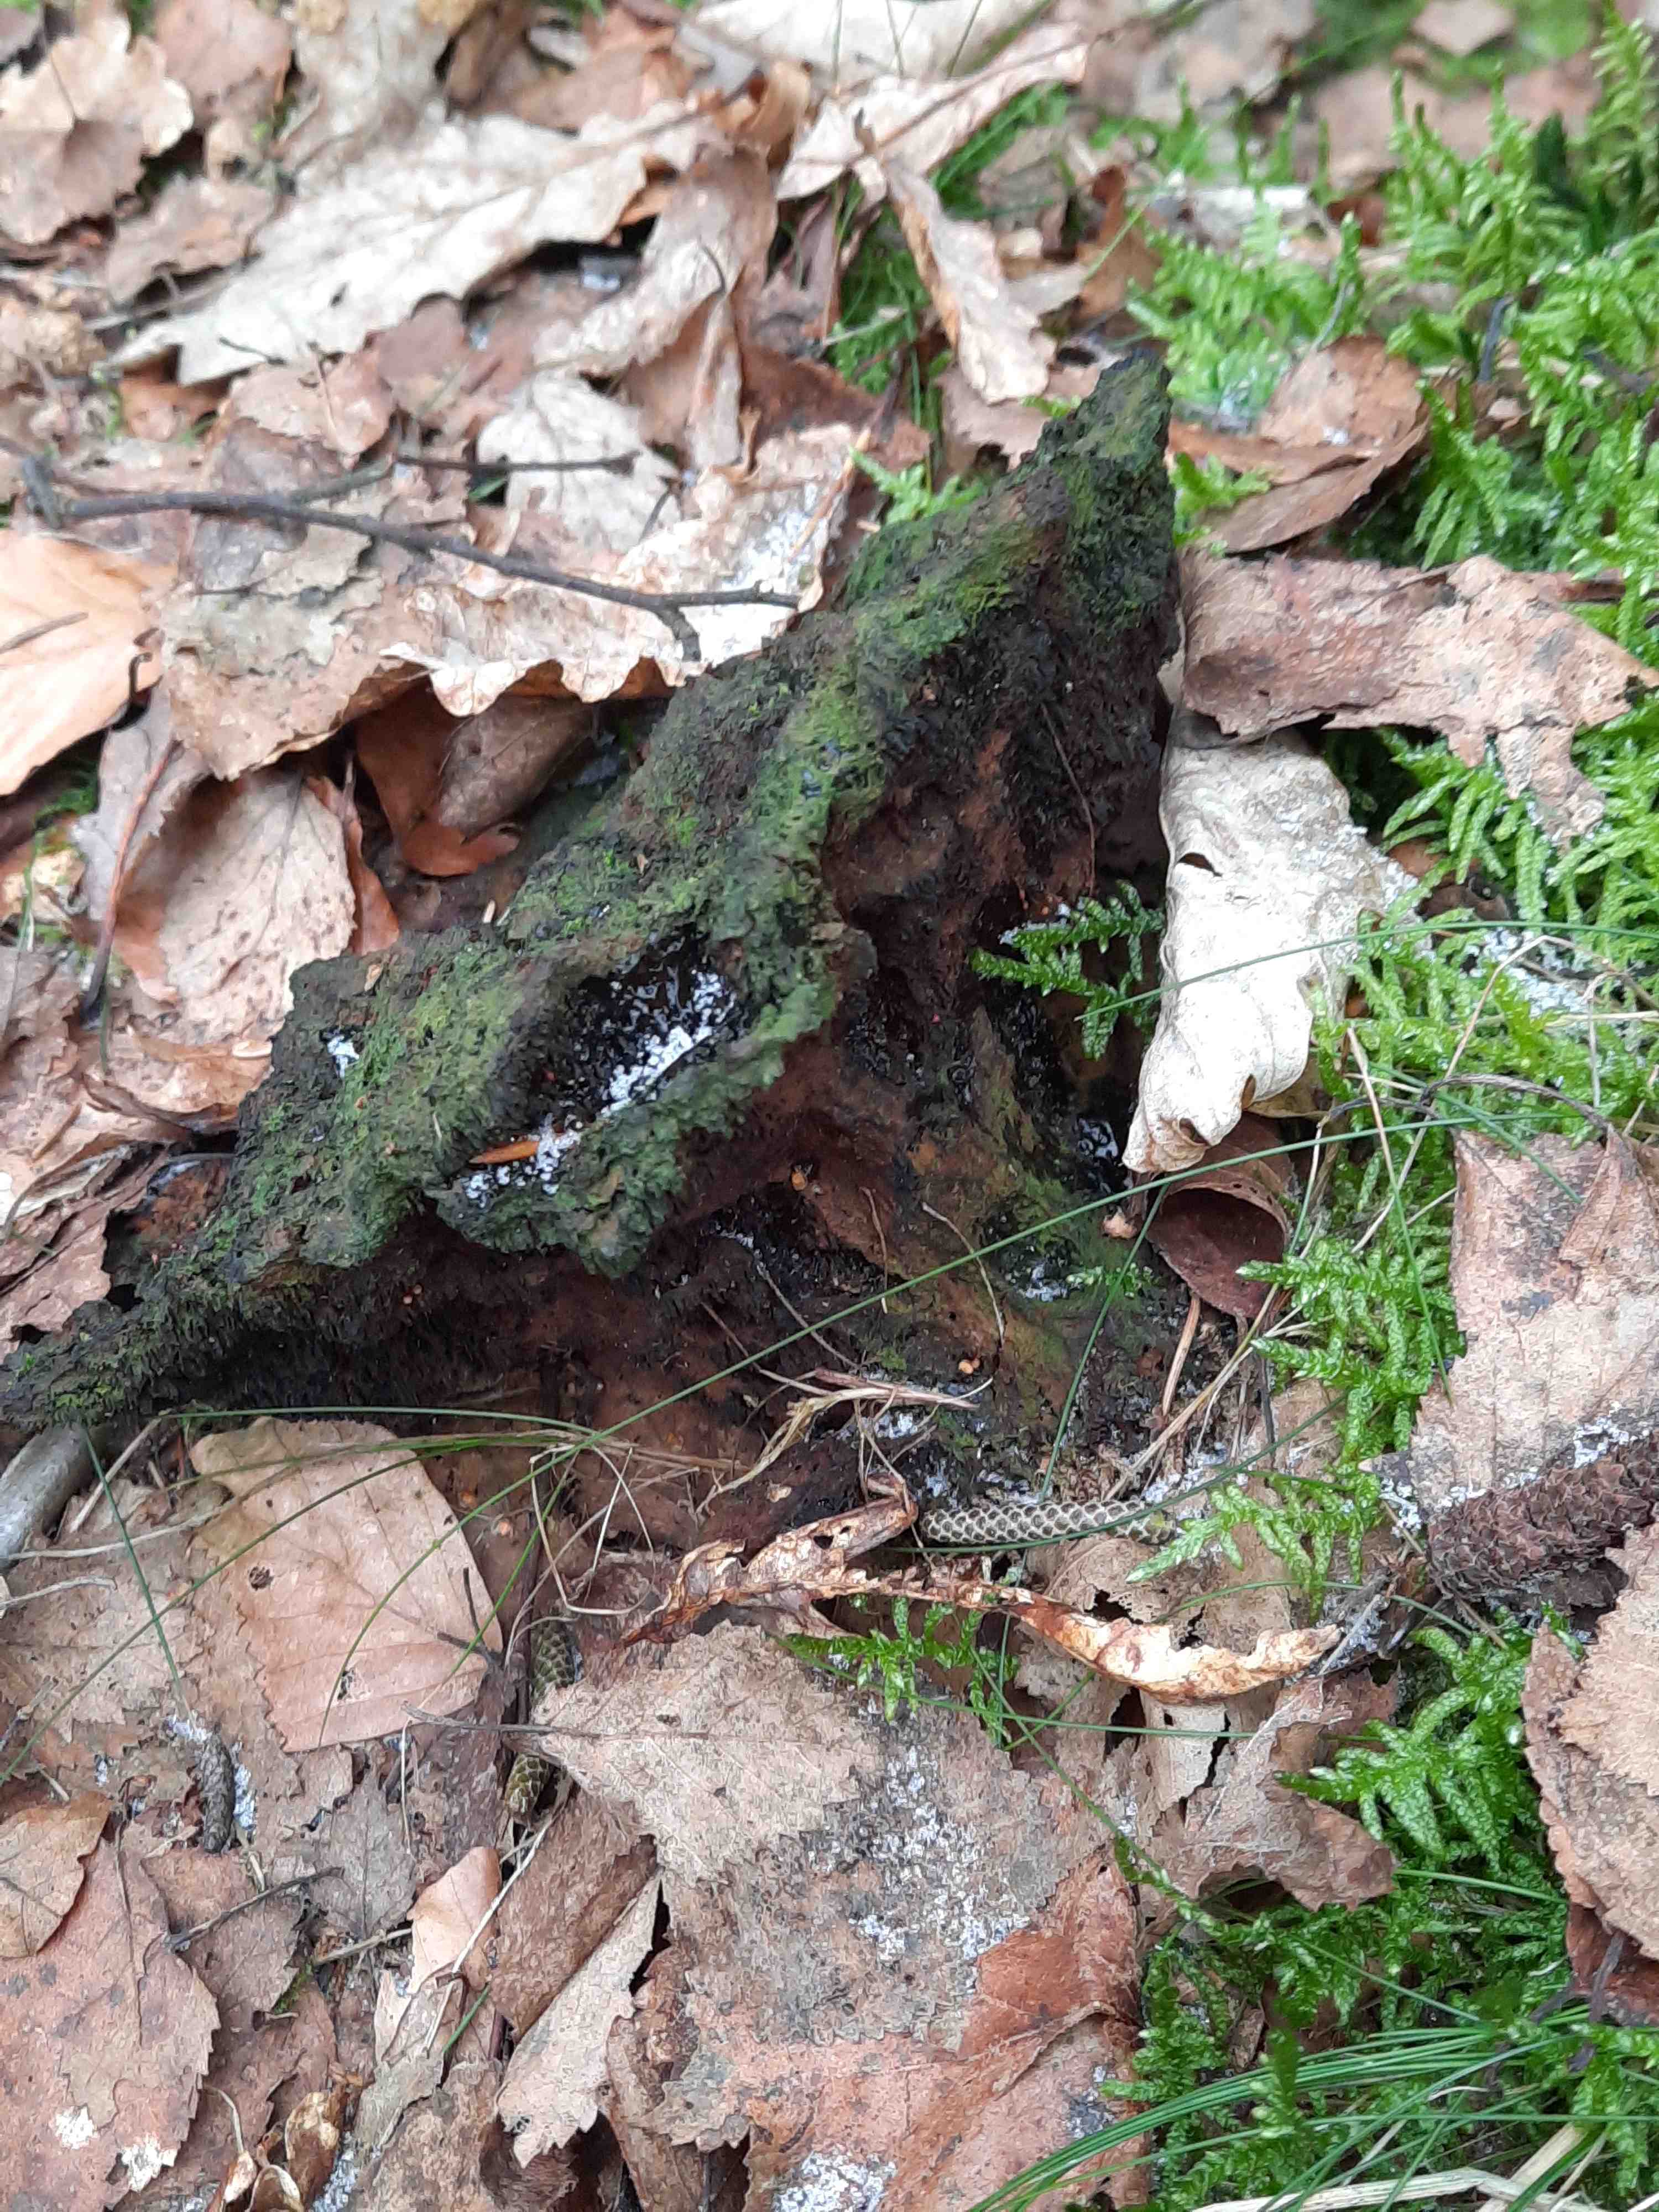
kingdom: Fungi
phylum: Basidiomycota
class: Agaricomycetes
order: Polyporales
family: Laetiporaceae
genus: Phaeolus
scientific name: Phaeolus schweinitzii
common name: brunporesvamp
